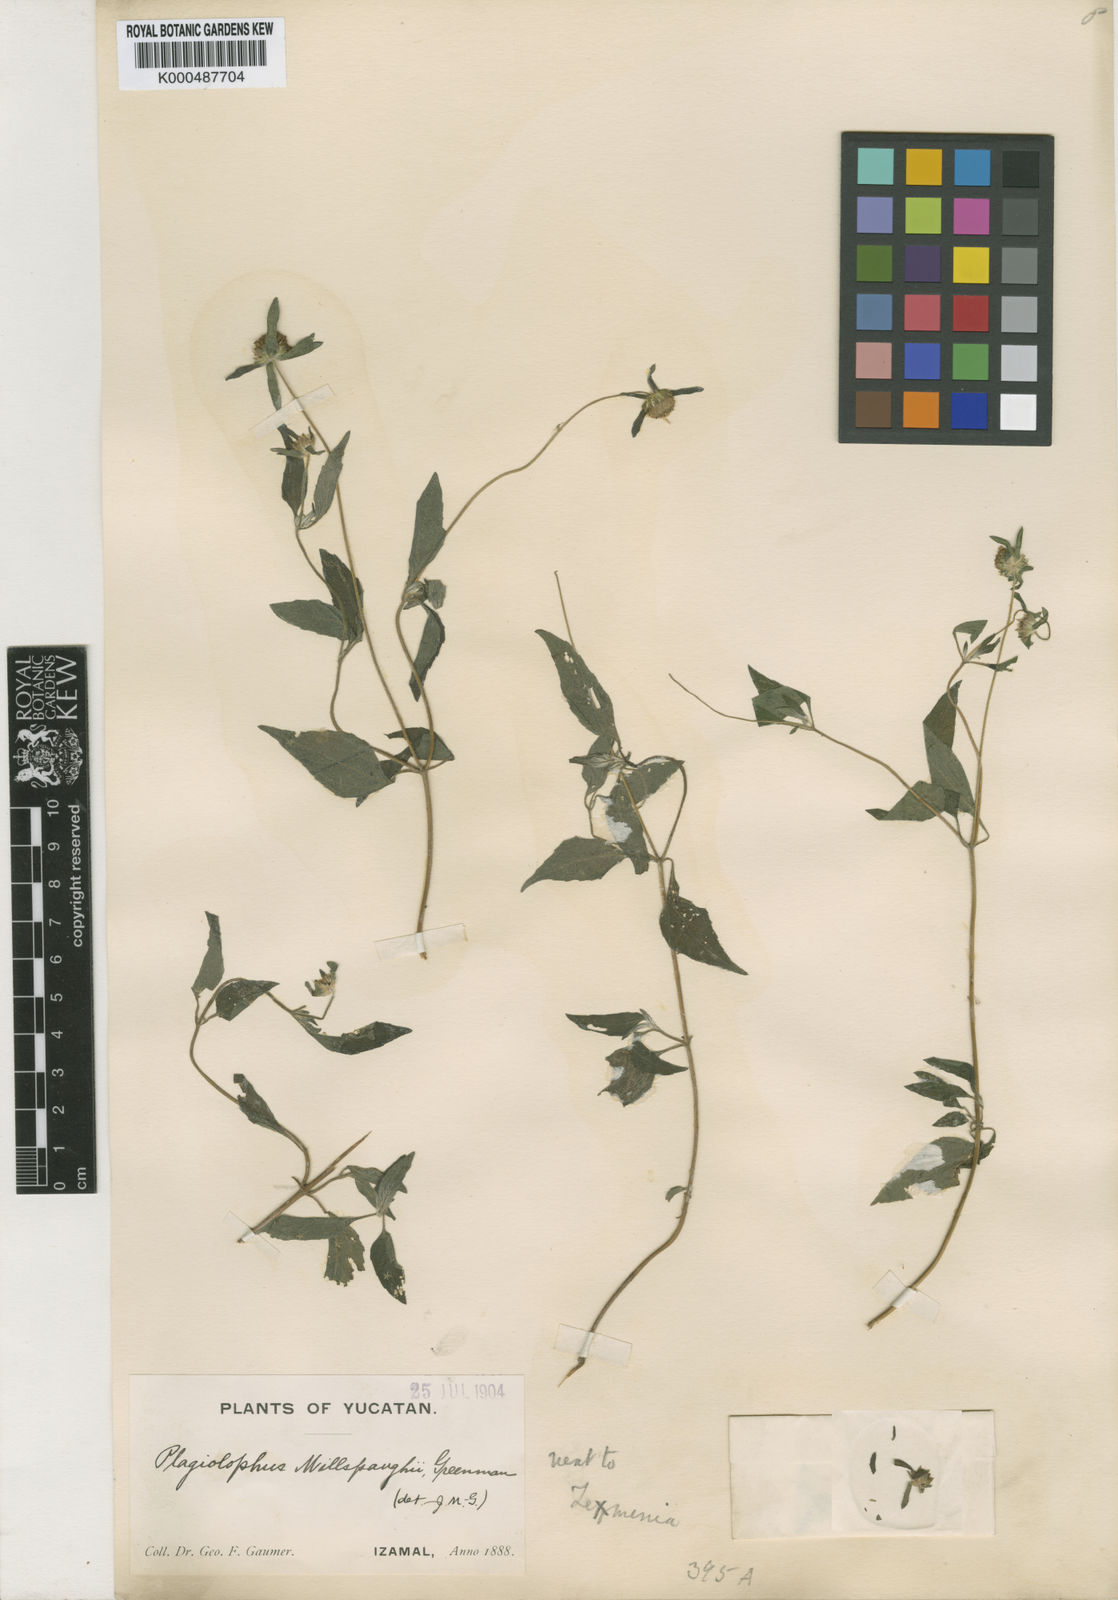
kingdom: Plantae
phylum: Tracheophyta
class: Magnoliopsida
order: Asterales
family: Asteraceae
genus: Plagiolophus
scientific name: Plagiolophus millspaughii
